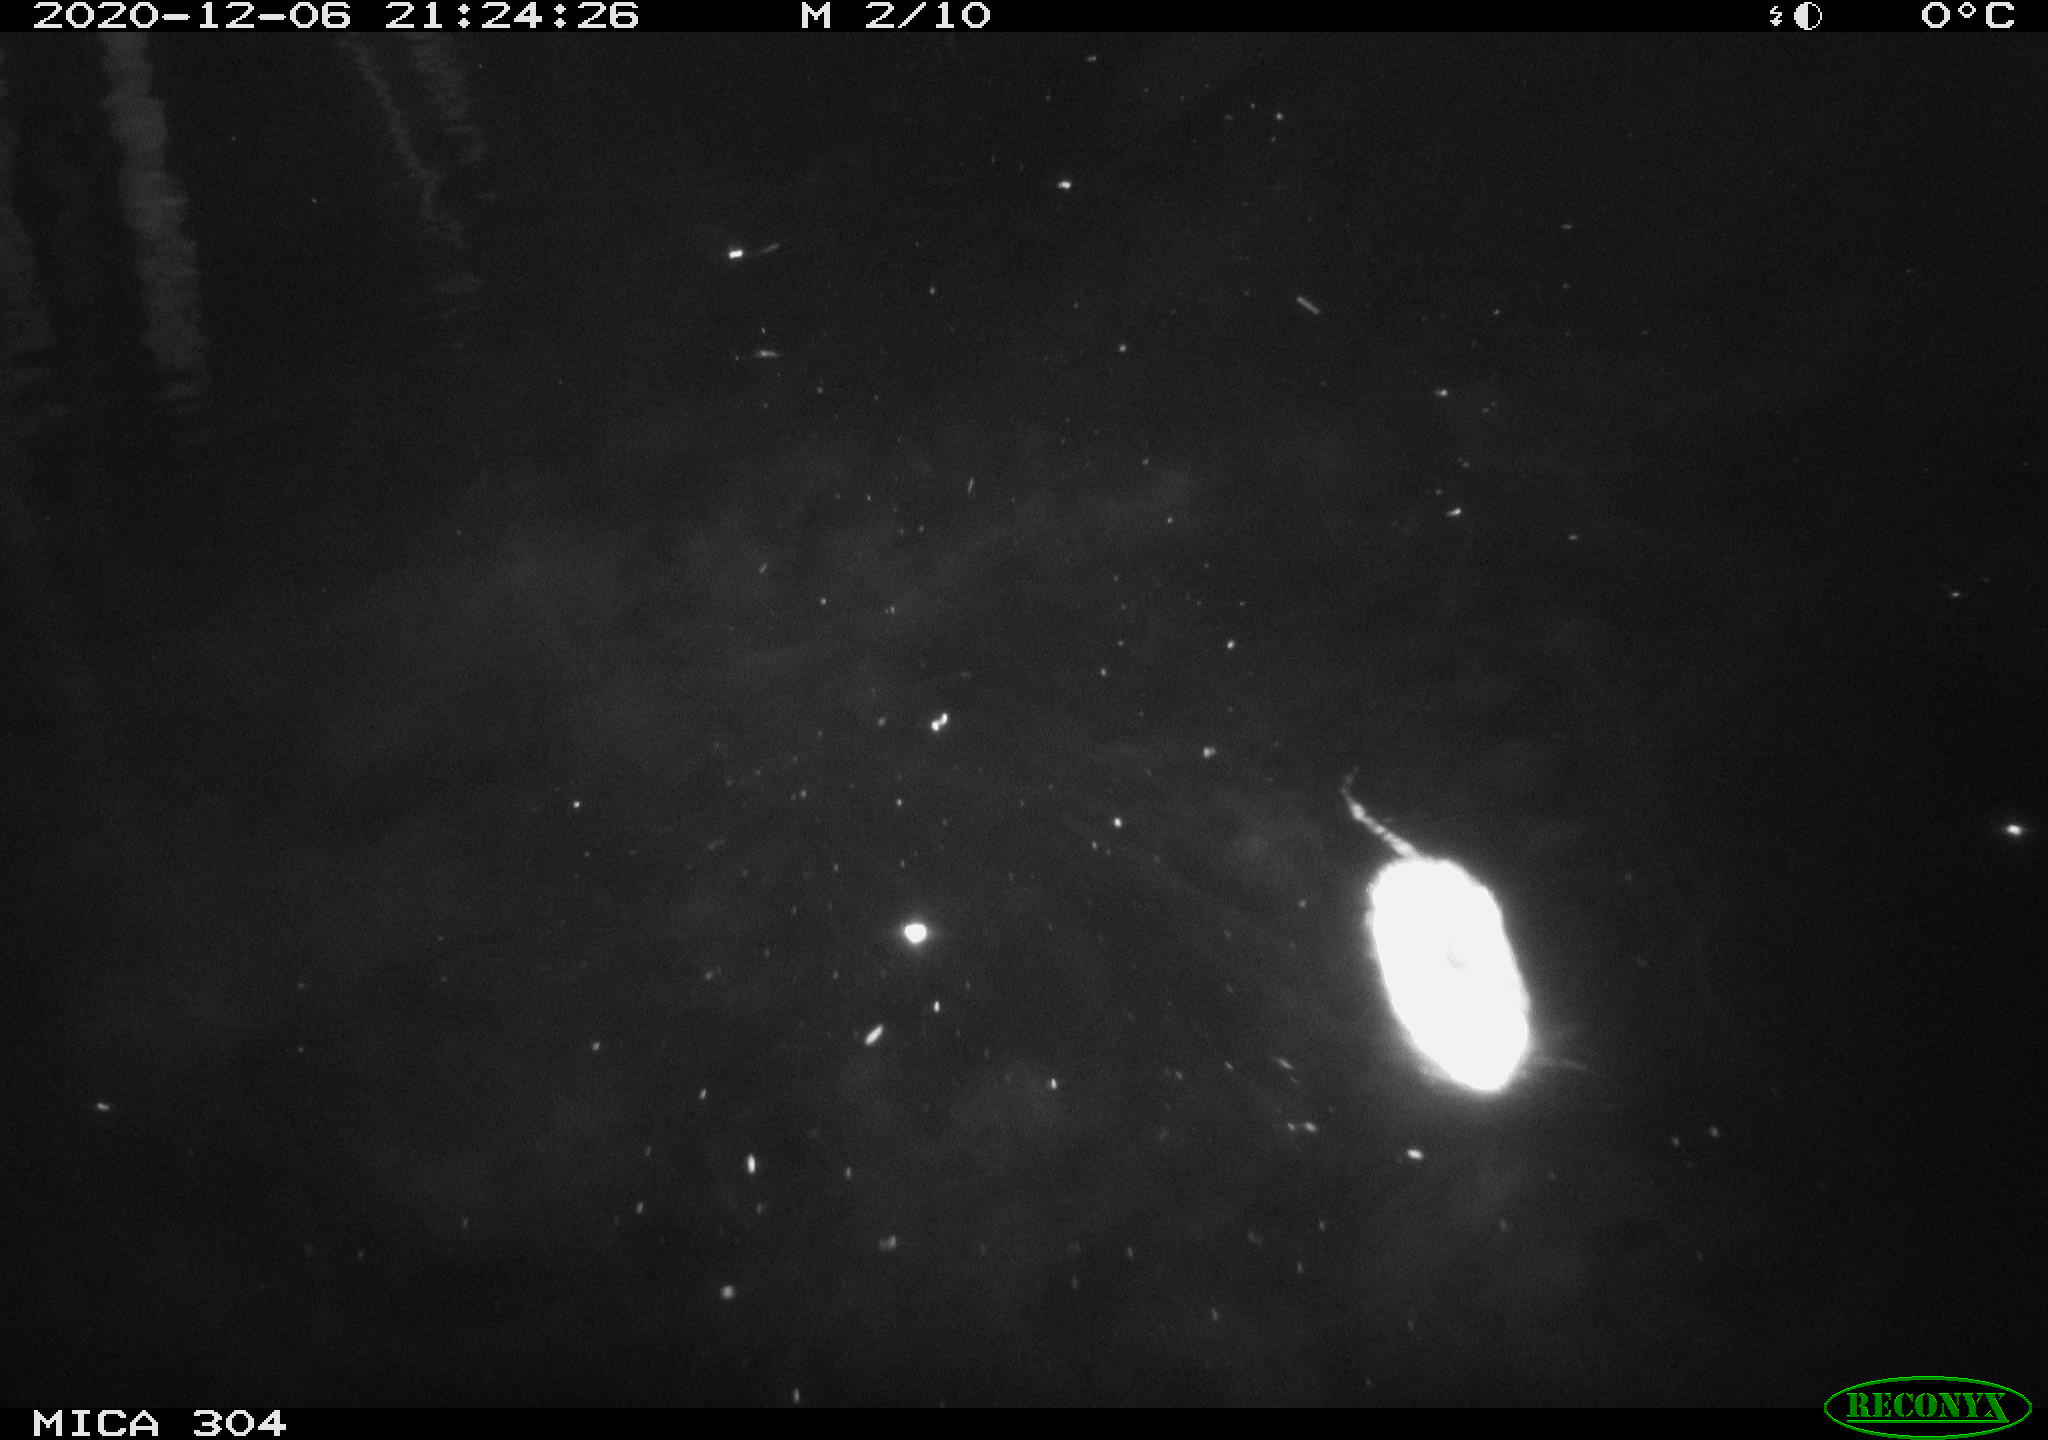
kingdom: Animalia
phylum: Chordata
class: Mammalia
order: Rodentia
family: Muridae
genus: Rattus
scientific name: Rattus norvegicus
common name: Brown rat
